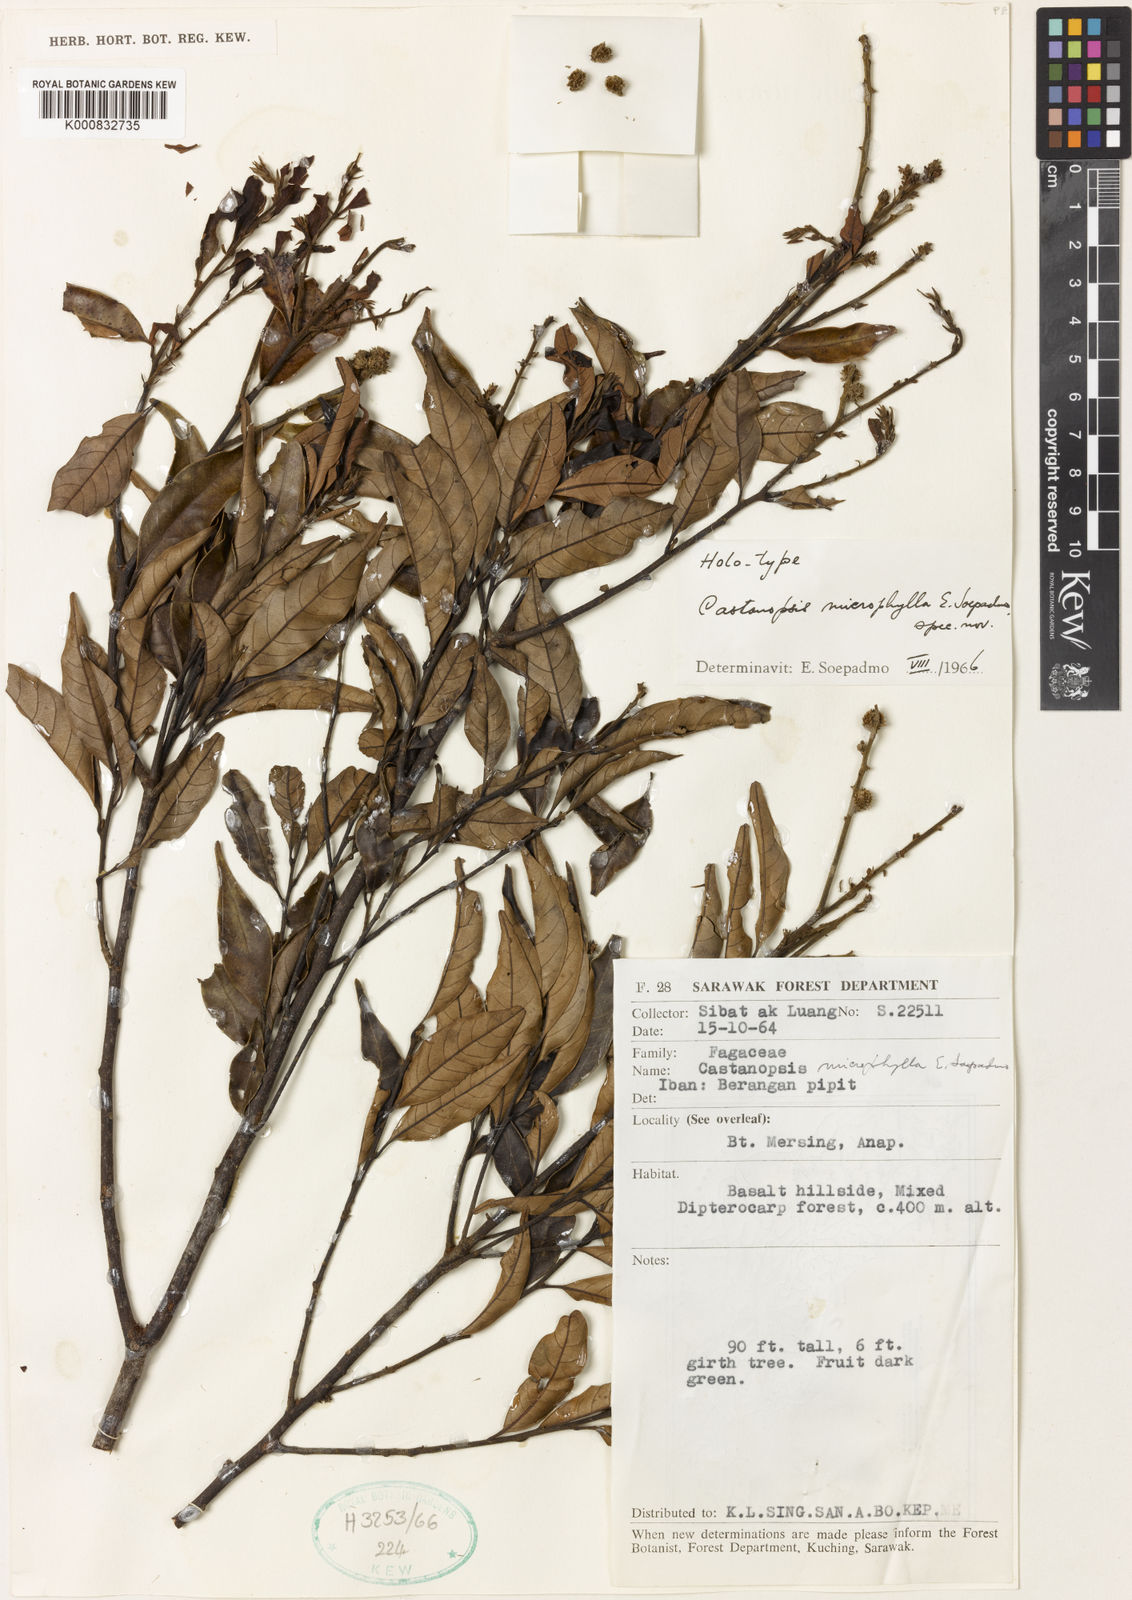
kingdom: Plantae
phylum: Tracheophyta
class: Magnoliopsida
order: Fagales
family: Fagaceae
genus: Castanopsis
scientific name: Castanopsis microphylla
